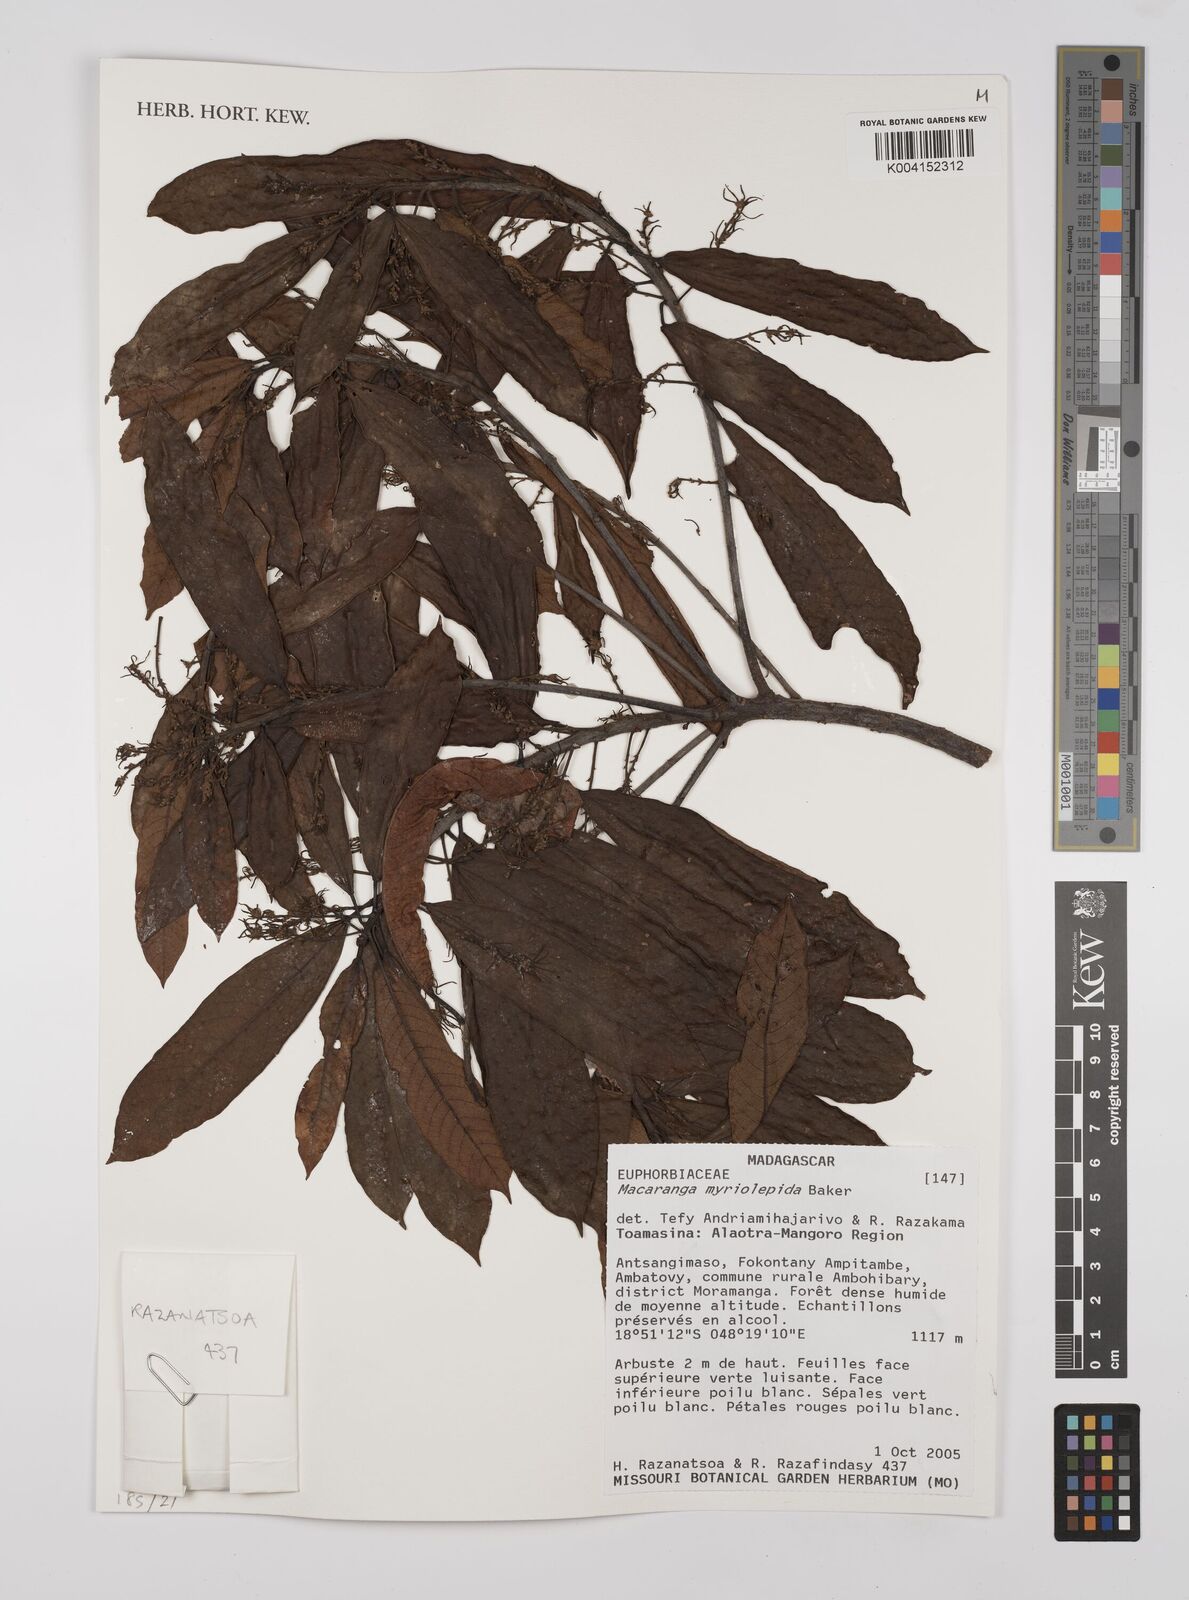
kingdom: Plantae
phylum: Tracheophyta
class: Magnoliopsida
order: Malpighiales
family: Euphorbiaceae
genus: Macaranga
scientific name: Macaranga myriolepida
